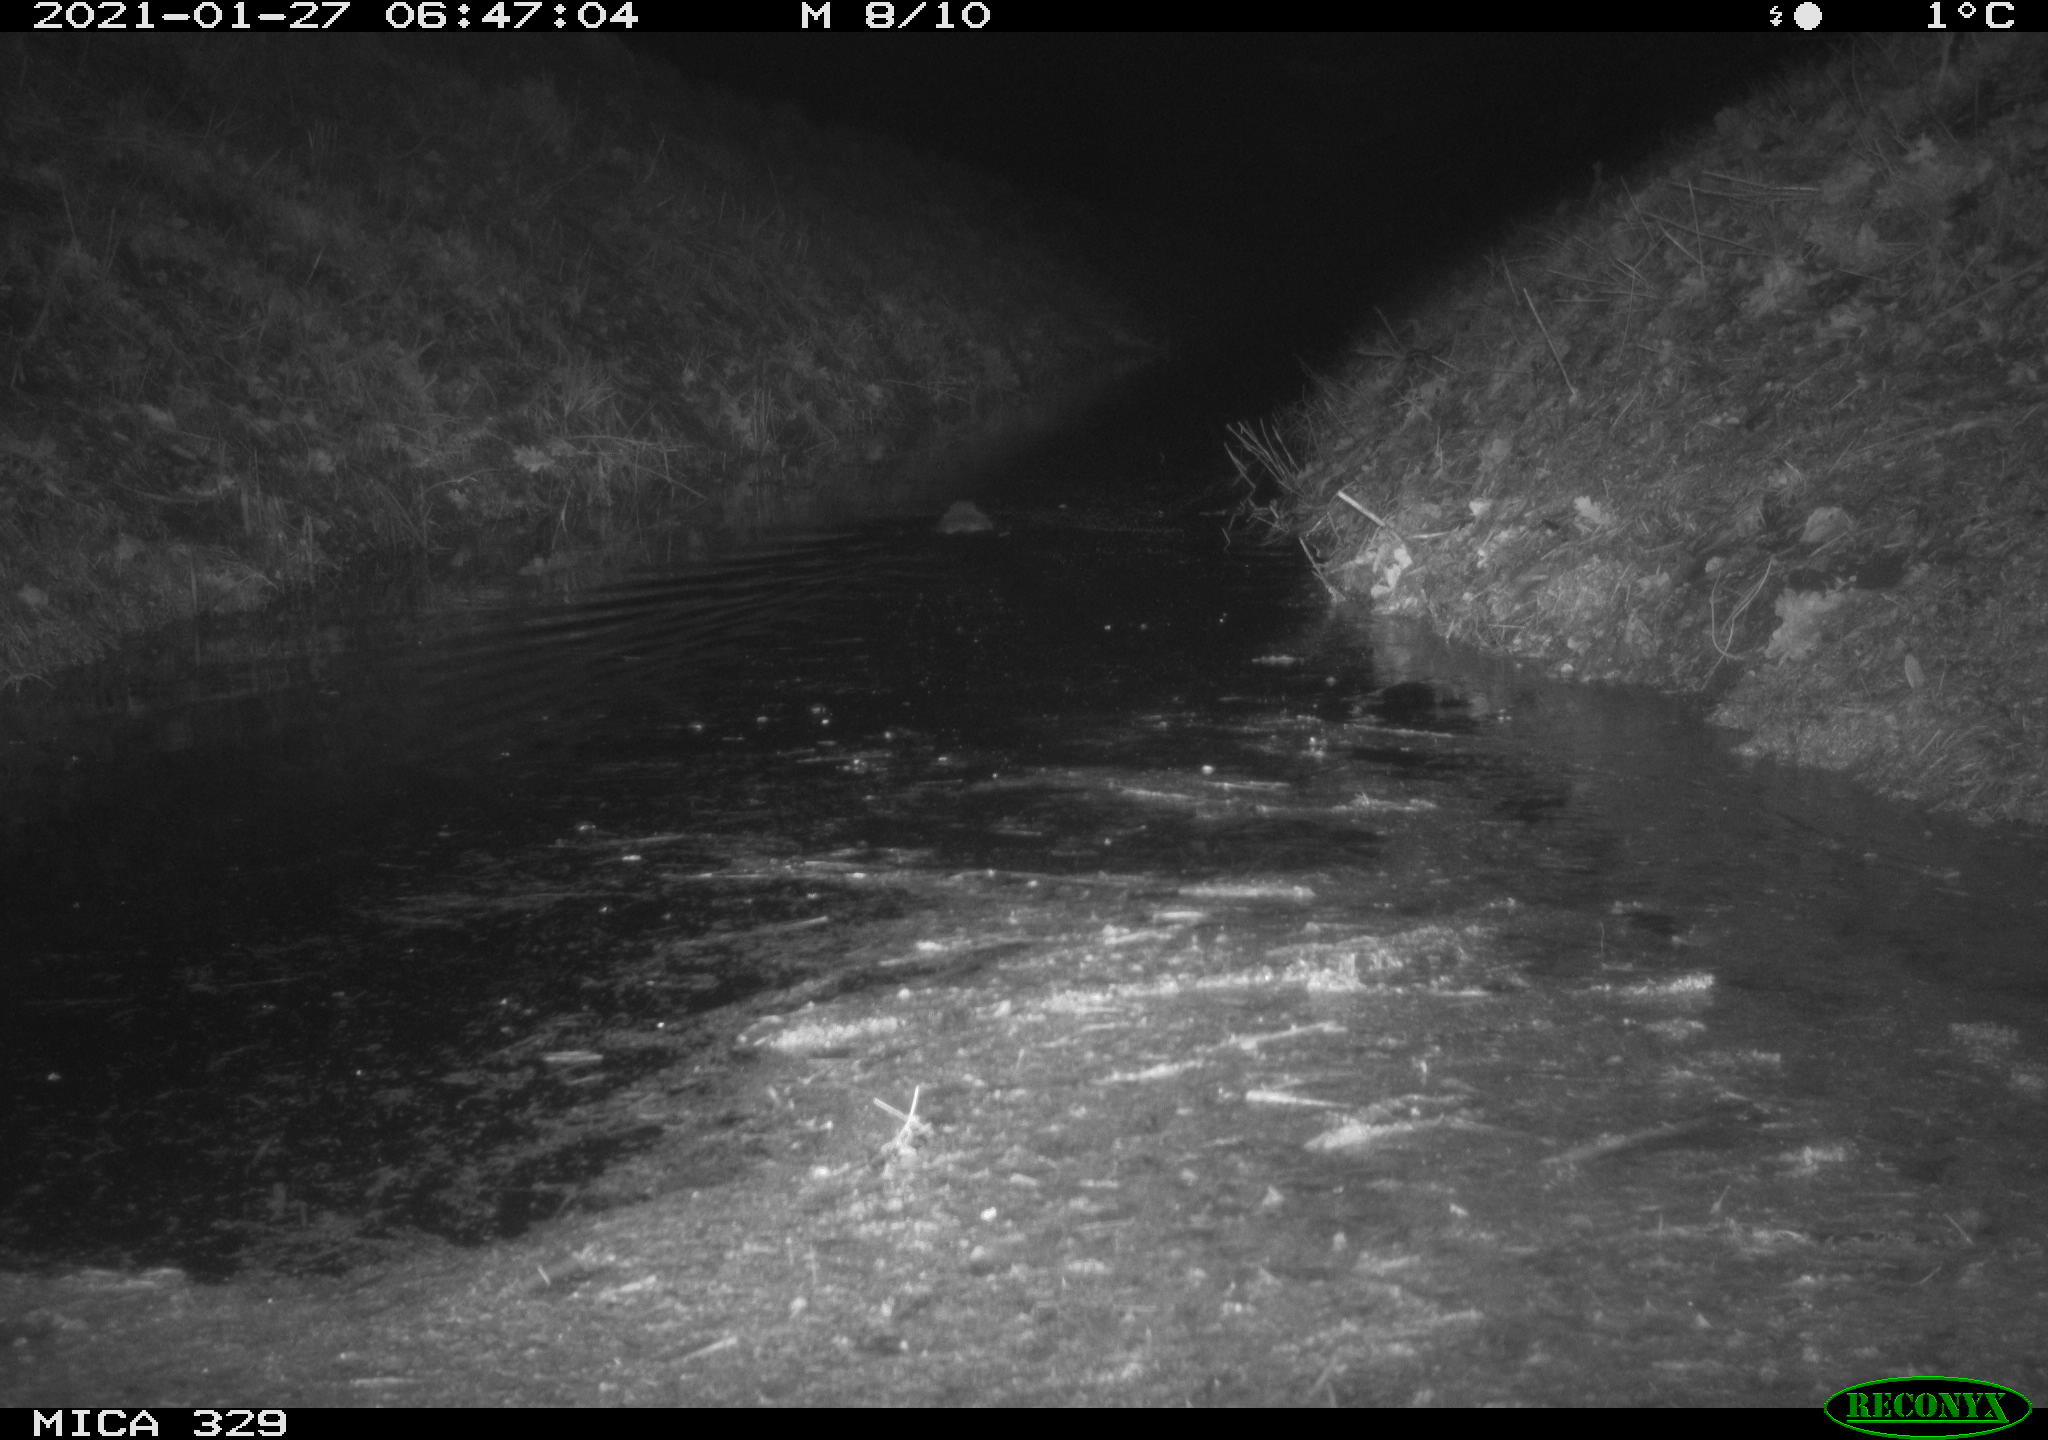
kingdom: Animalia
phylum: Chordata
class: Mammalia
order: Rodentia
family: Cricetidae
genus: Ondatra
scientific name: Ondatra zibethicus
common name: Muskrat
